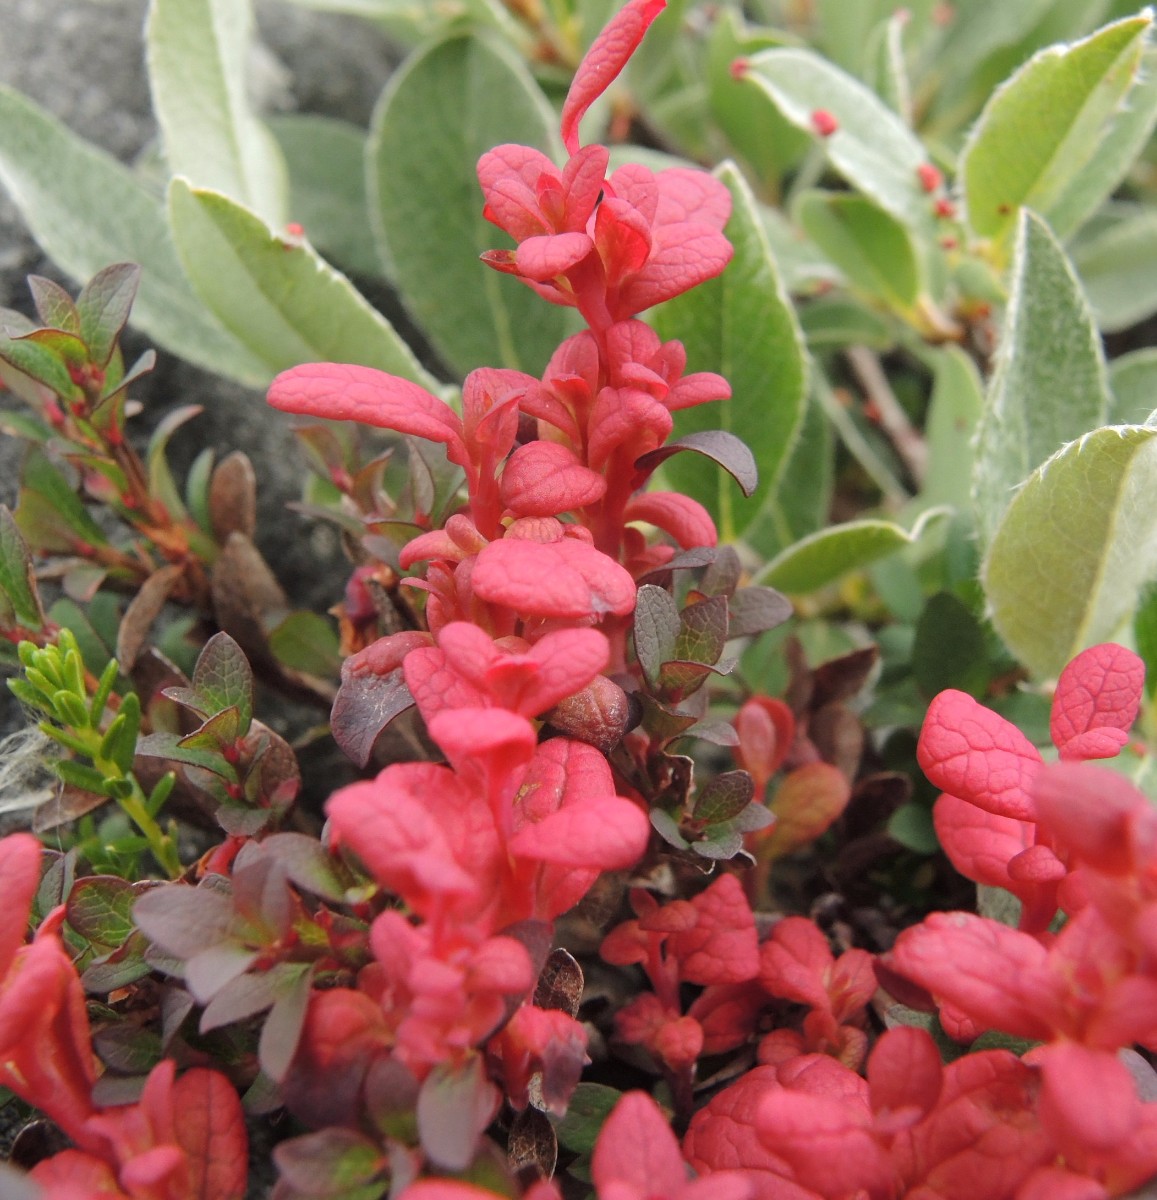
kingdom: Fungi
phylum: Basidiomycota
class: Exobasidiomycetes
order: Exobasidiales
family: Exobasidiaceae
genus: Exobasidium
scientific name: Exobasidium vaccinii-uliginosi
